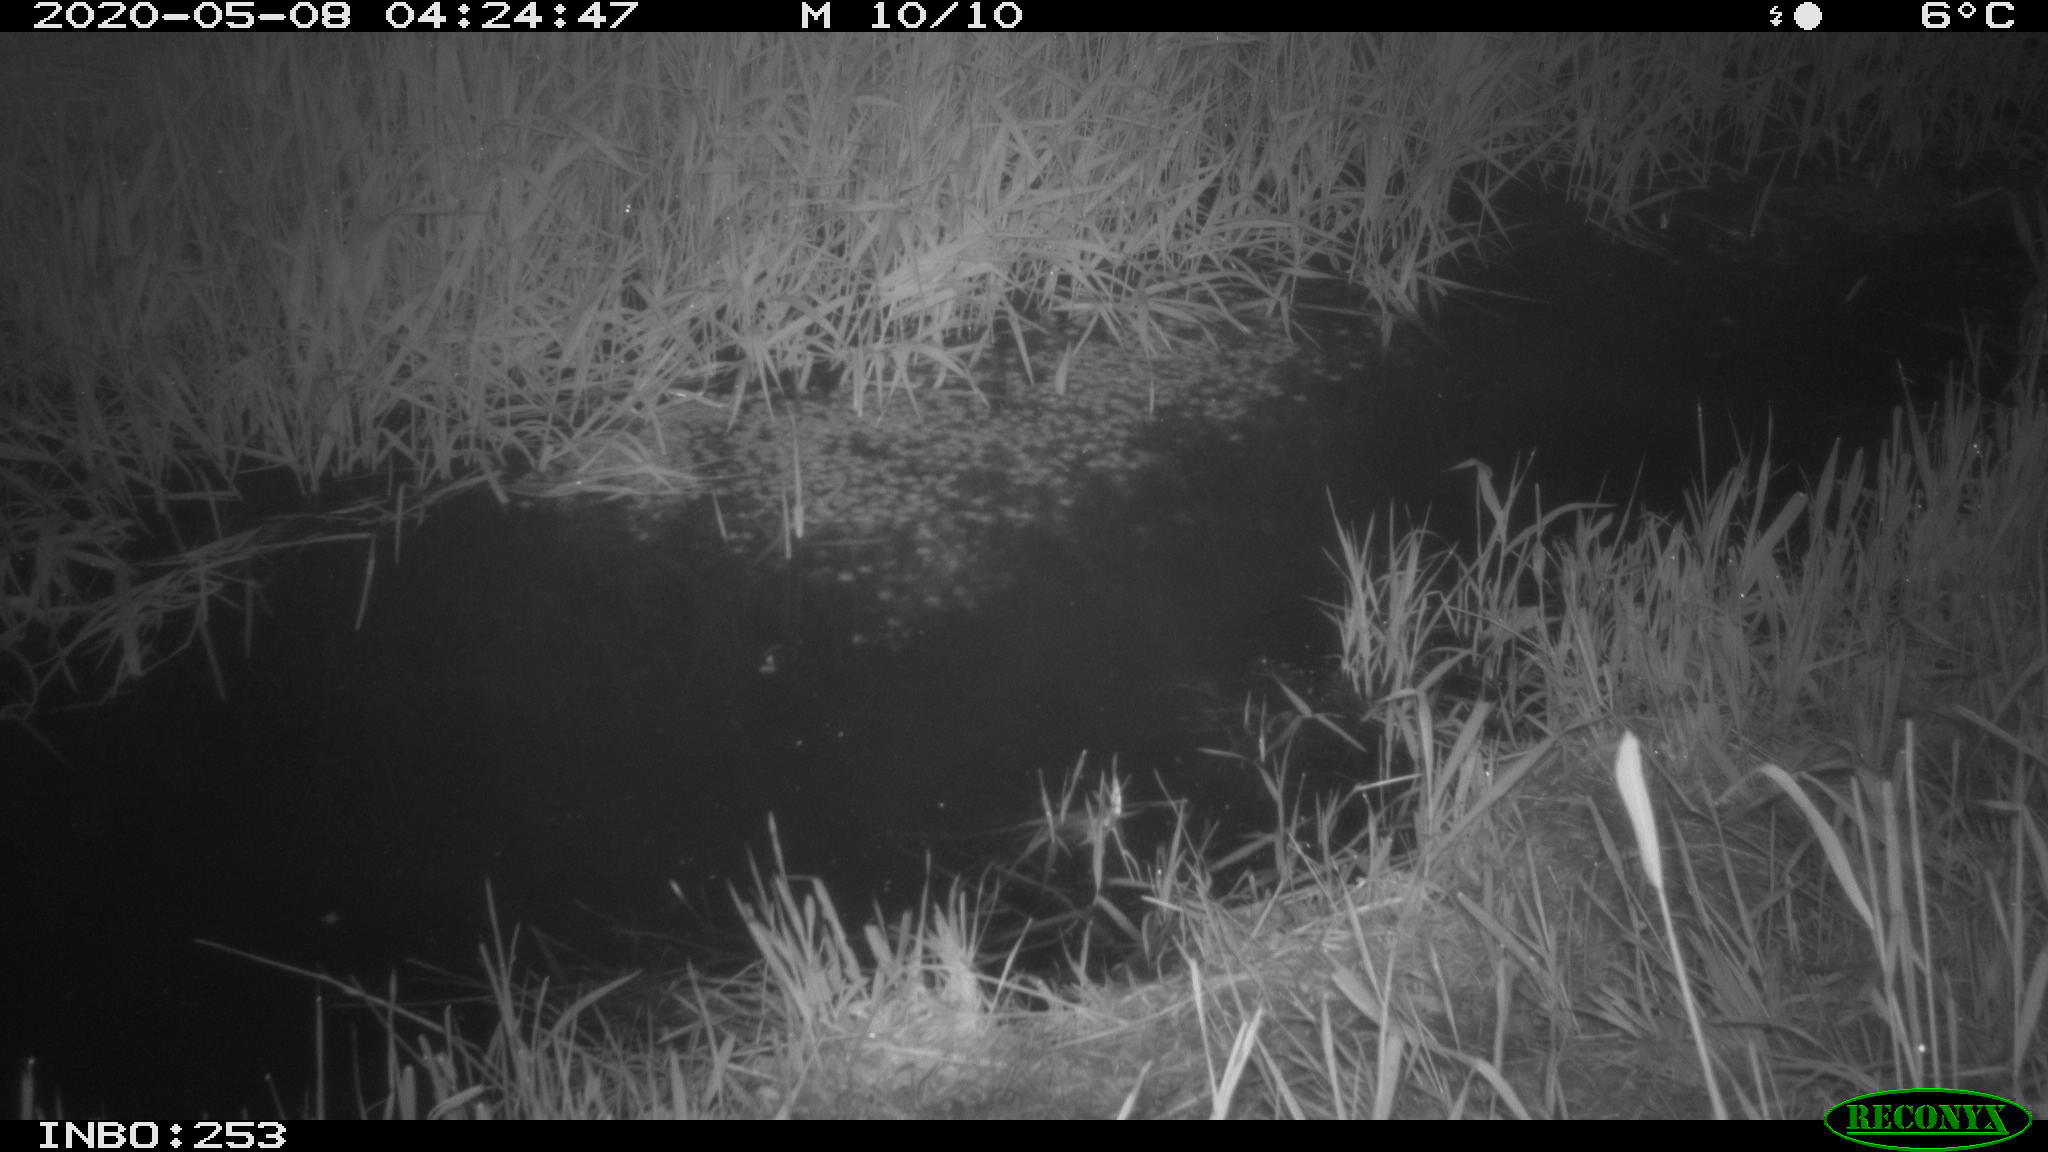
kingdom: Animalia
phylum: Chordata
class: Aves
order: Anseriformes
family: Anatidae
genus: Anas
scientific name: Anas platyrhynchos
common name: Mallard
